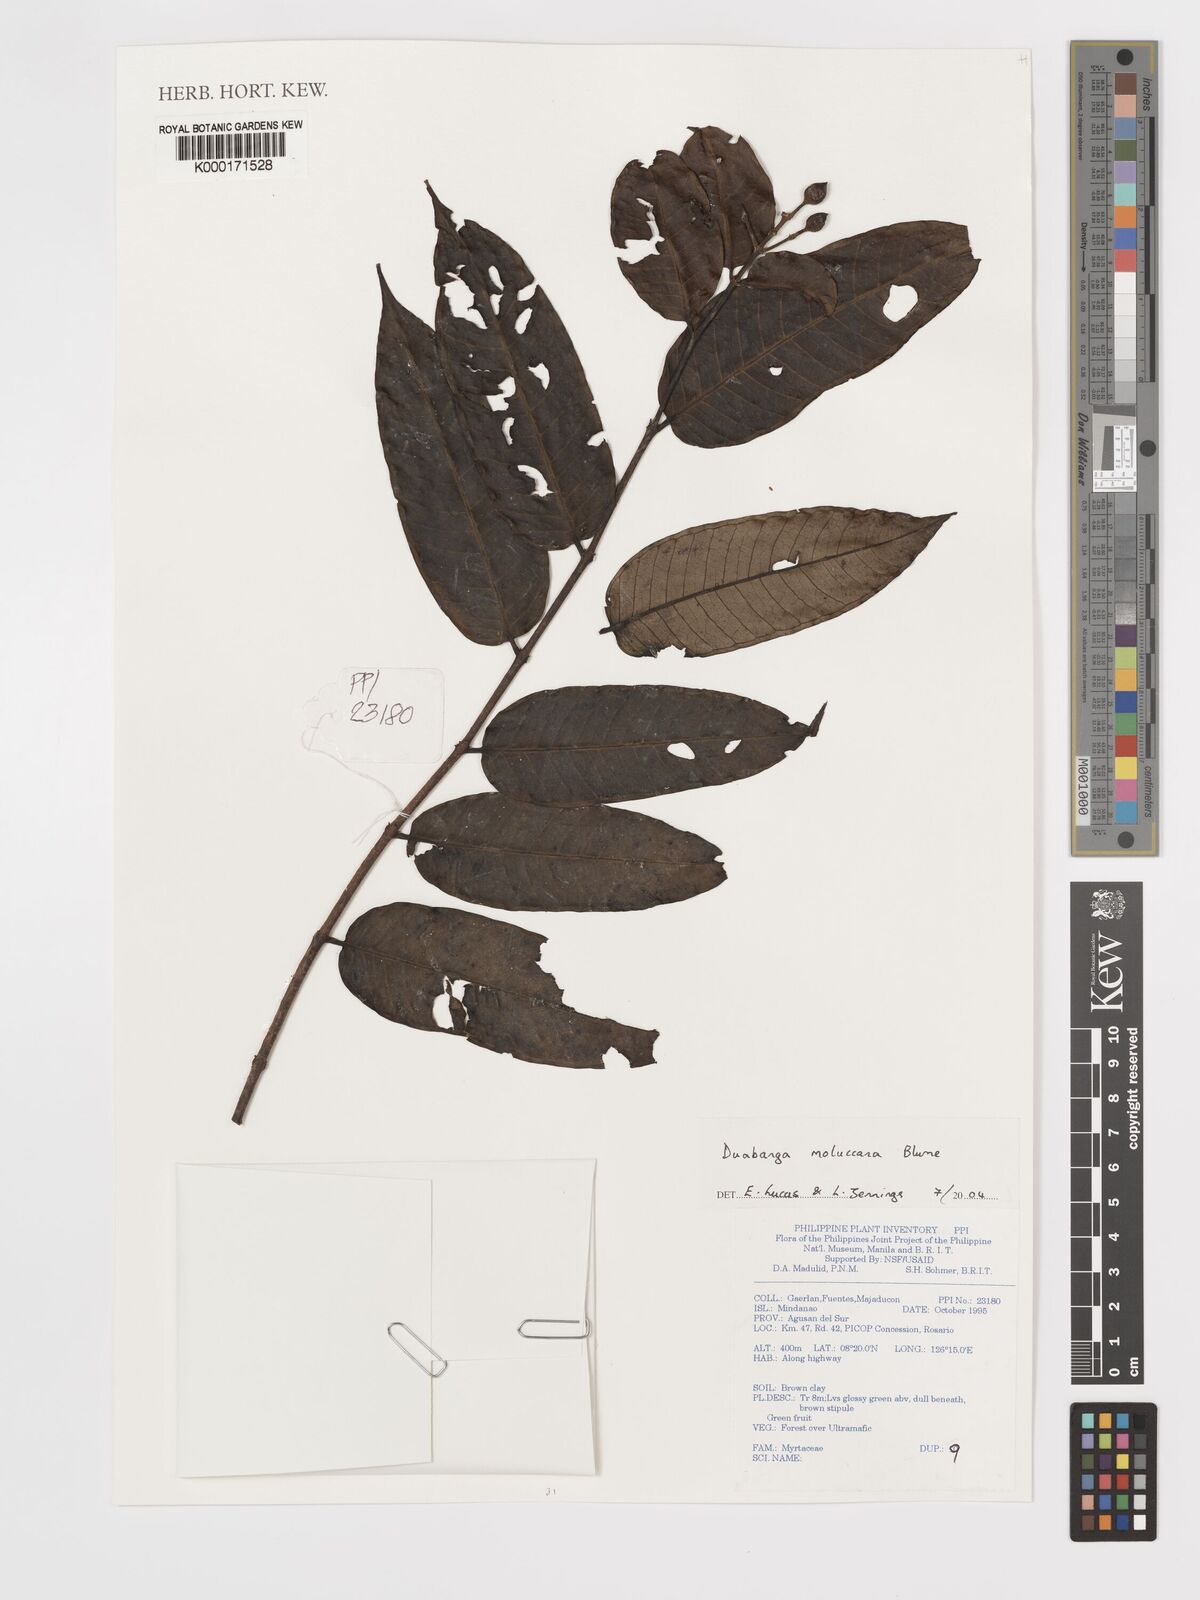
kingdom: Plantae
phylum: Tracheophyta
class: Magnoliopsida
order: Myrtales
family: Lythraceae
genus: Duabanga
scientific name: Duabanga moluccana
